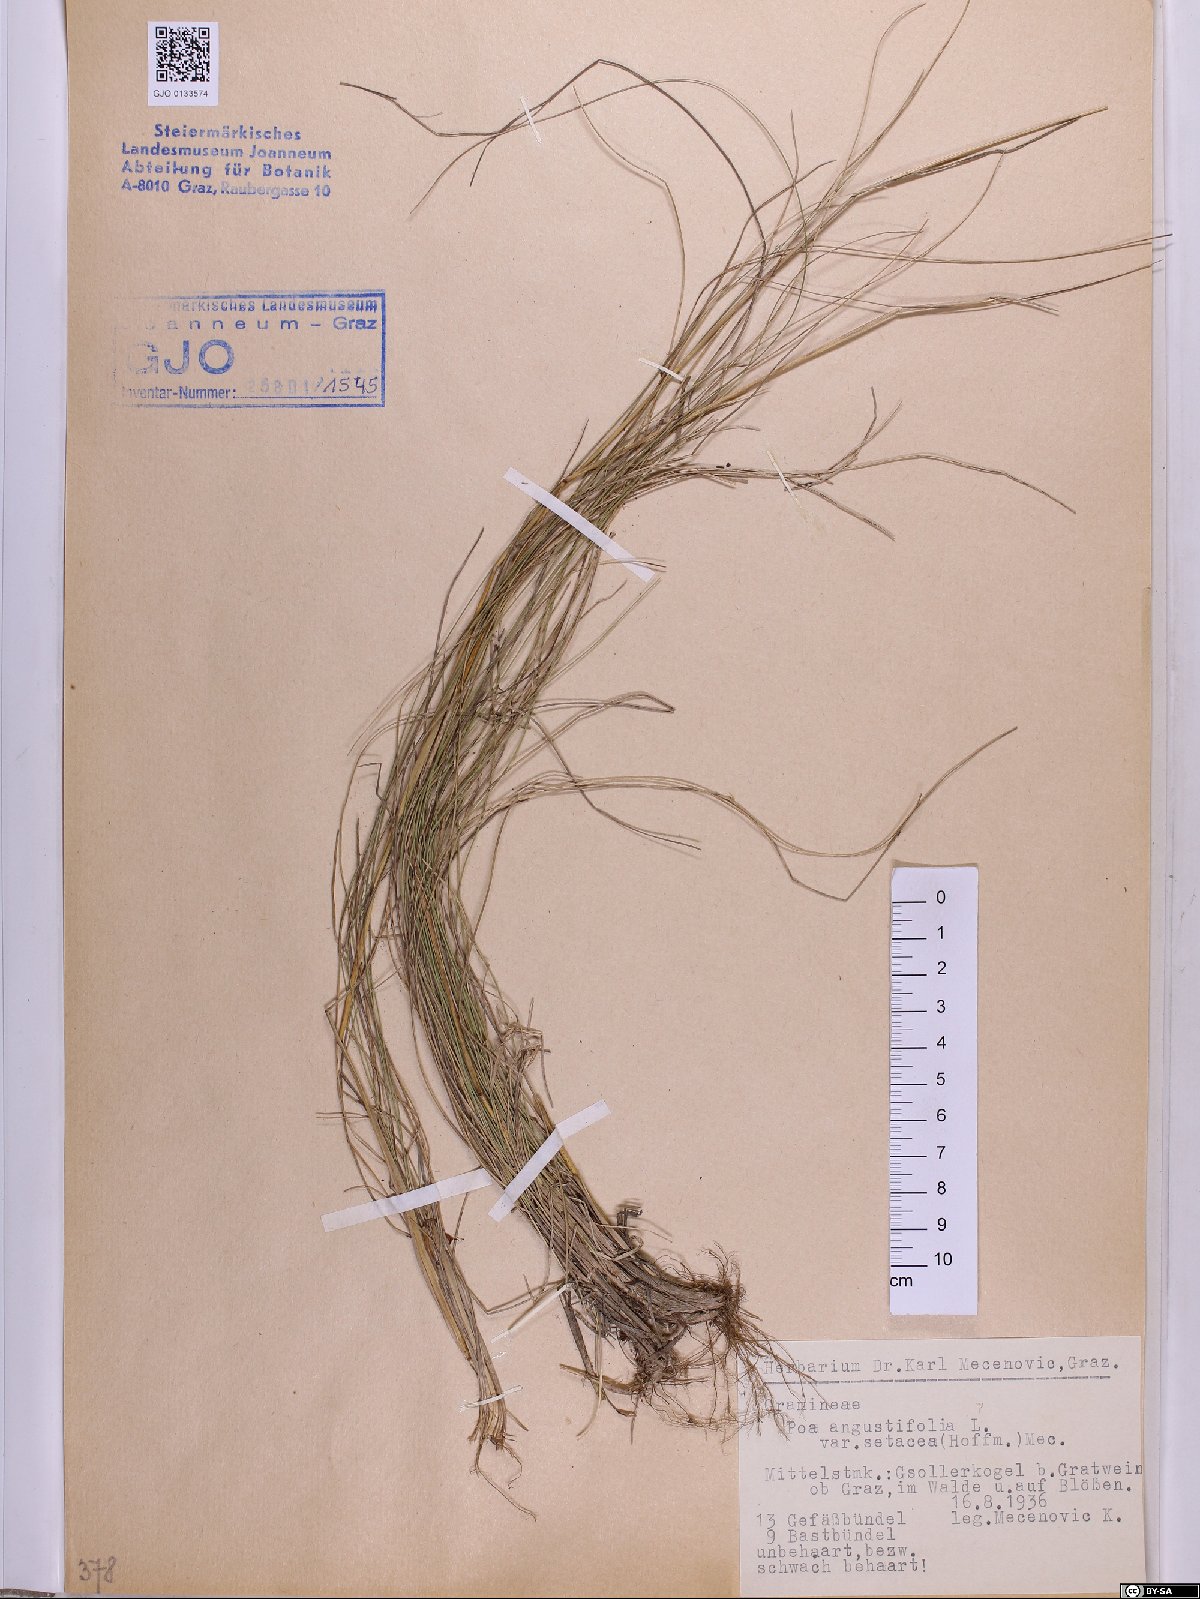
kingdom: Plantae
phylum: Tracheophyta
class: Liliopsida
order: Poales
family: Poaceae
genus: Poa
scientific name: Poa angustifolia
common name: Narrow-leaved meadow-grass
